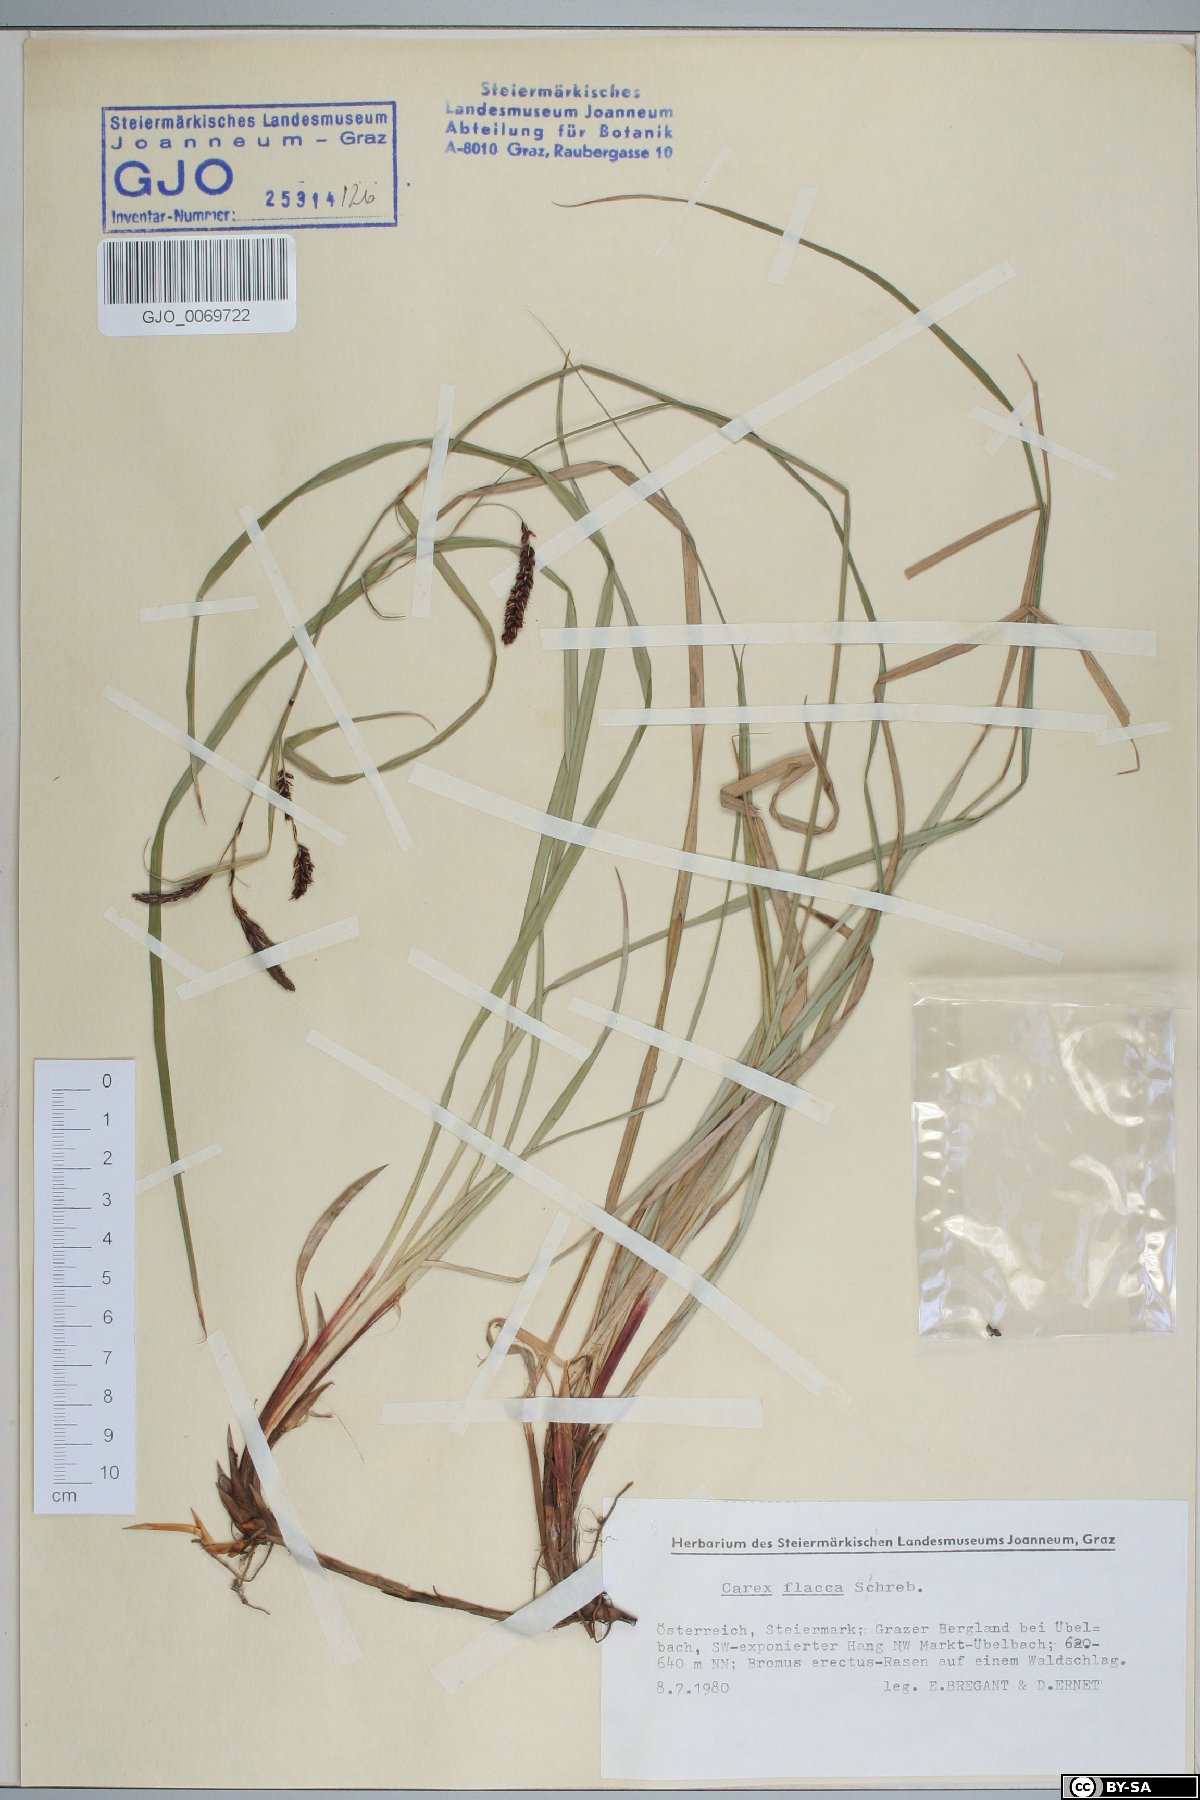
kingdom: Plantae
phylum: Tracheophyta
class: Liliopsida
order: Poales
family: Cyperaceae
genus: Carex
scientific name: Carex flacca
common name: Glaucous sedge
